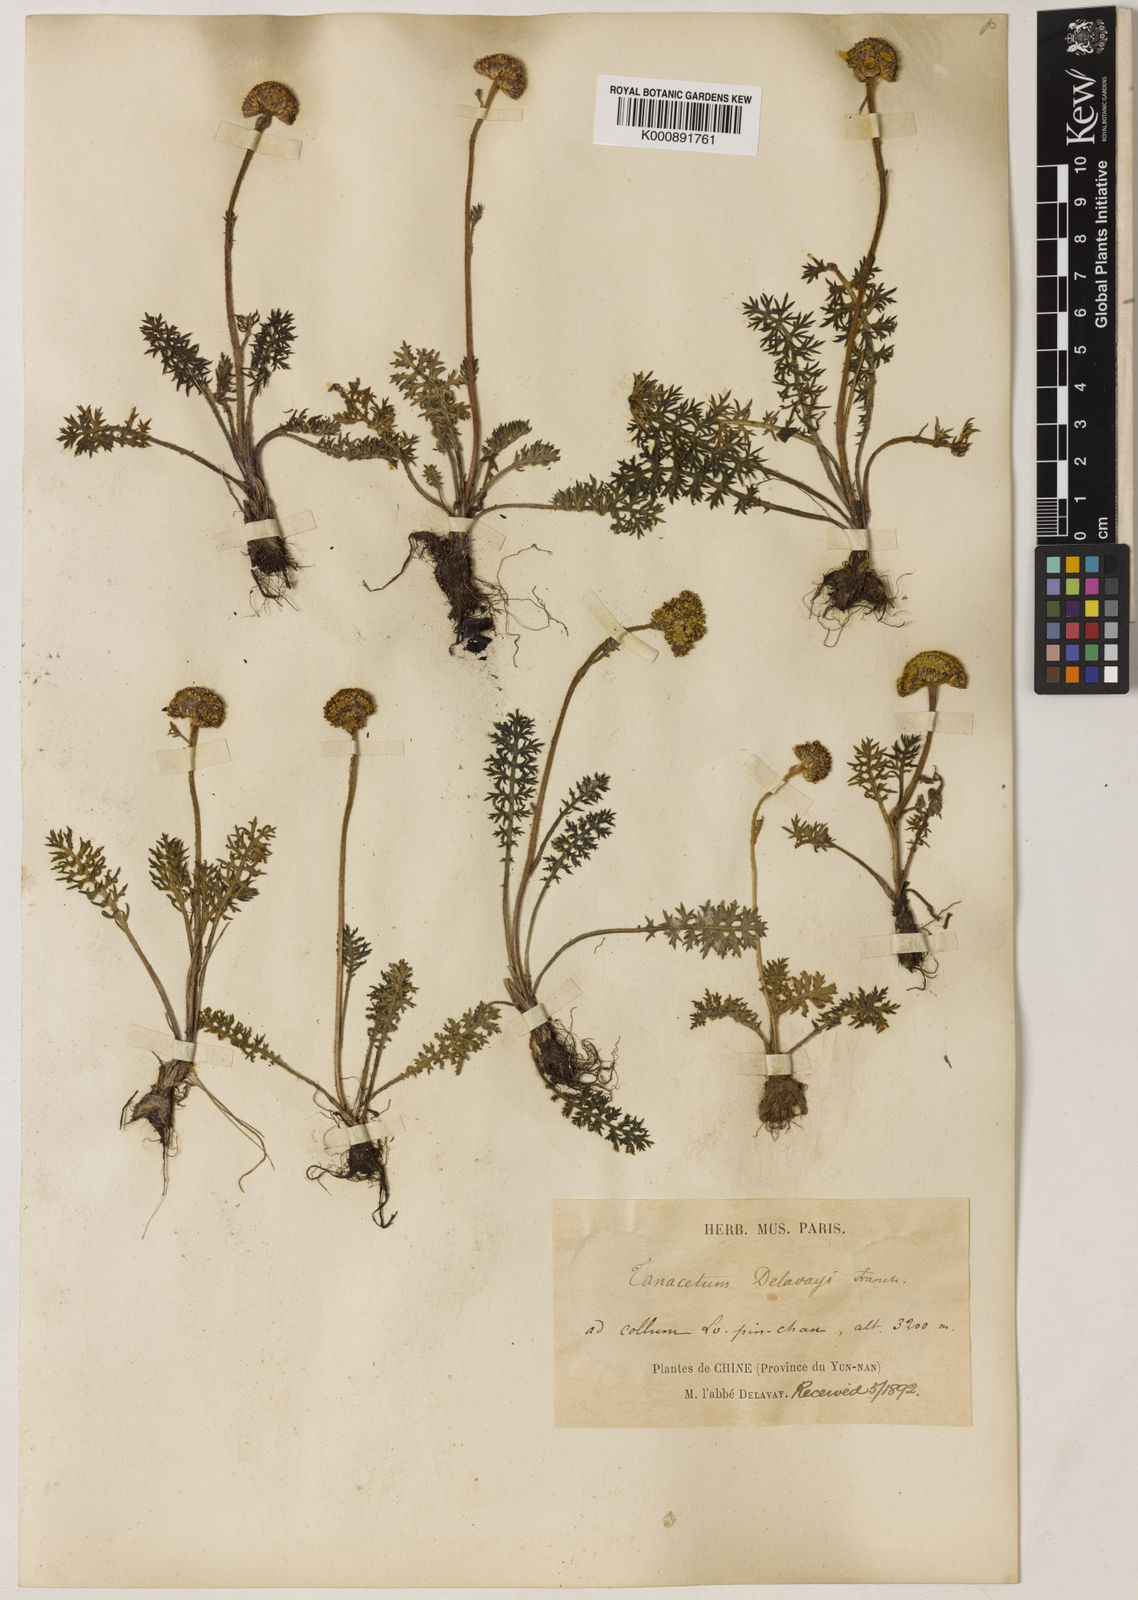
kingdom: Plantae
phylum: Tracheophyta
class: Magnoliopsida
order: Asterales
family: Asteraceae
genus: Hippolytia
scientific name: Hippolytia delavayi
